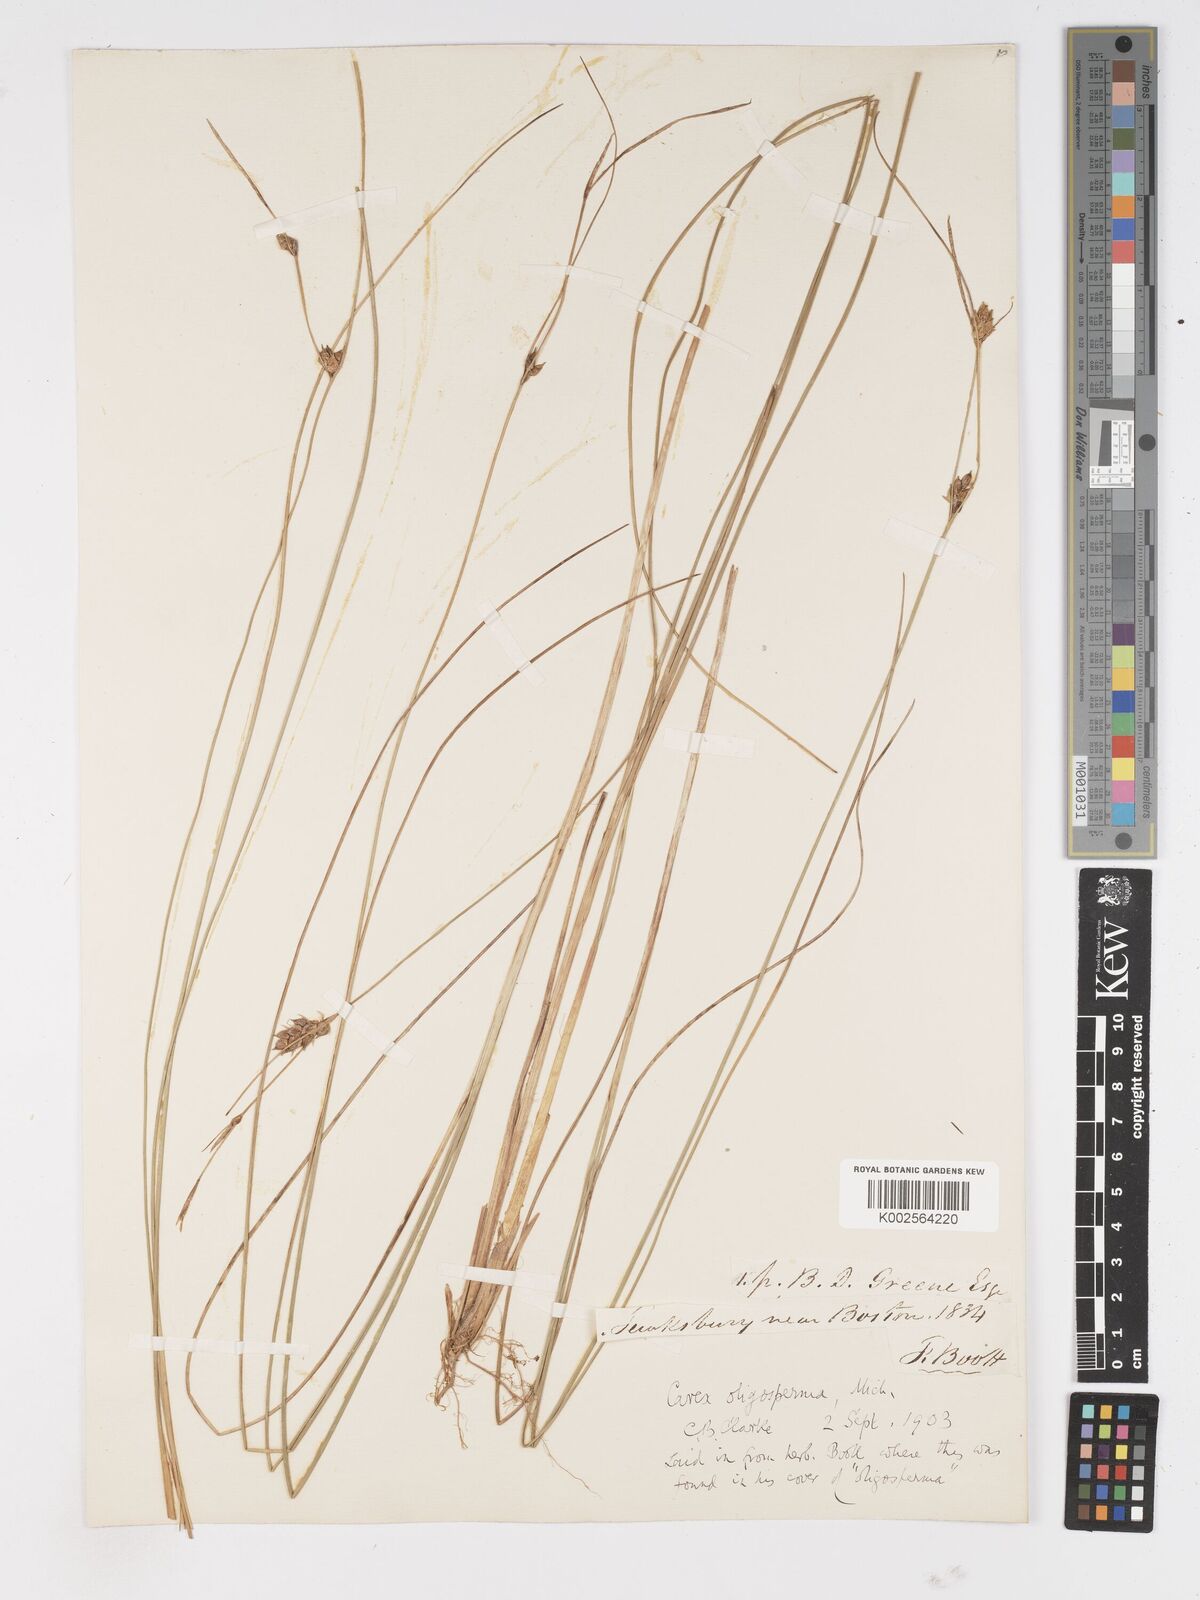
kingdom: Plantae
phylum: Tracheophyta
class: Liliopsida
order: Poales
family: Cyperaceae
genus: Carex
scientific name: Carex oligosperma
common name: Few-seed sedge
